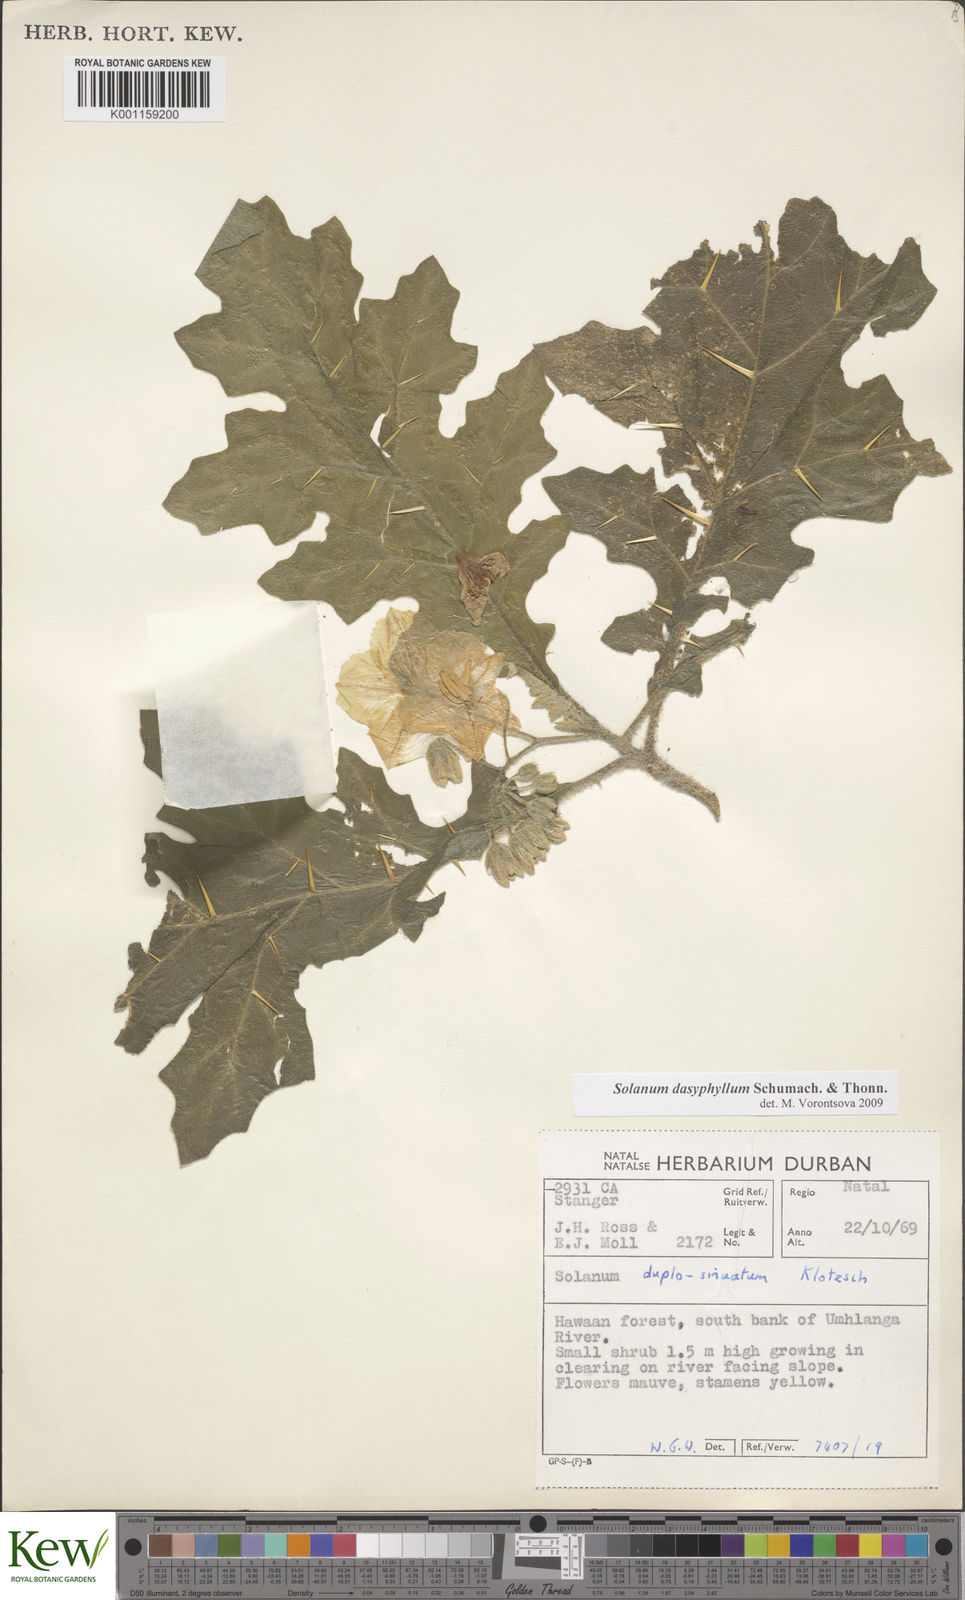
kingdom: Plantae
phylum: Tracheophyta
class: Magnoliopsida
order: Solanales
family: Solanaceae
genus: Solanum
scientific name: Solanum dasyphyllum
